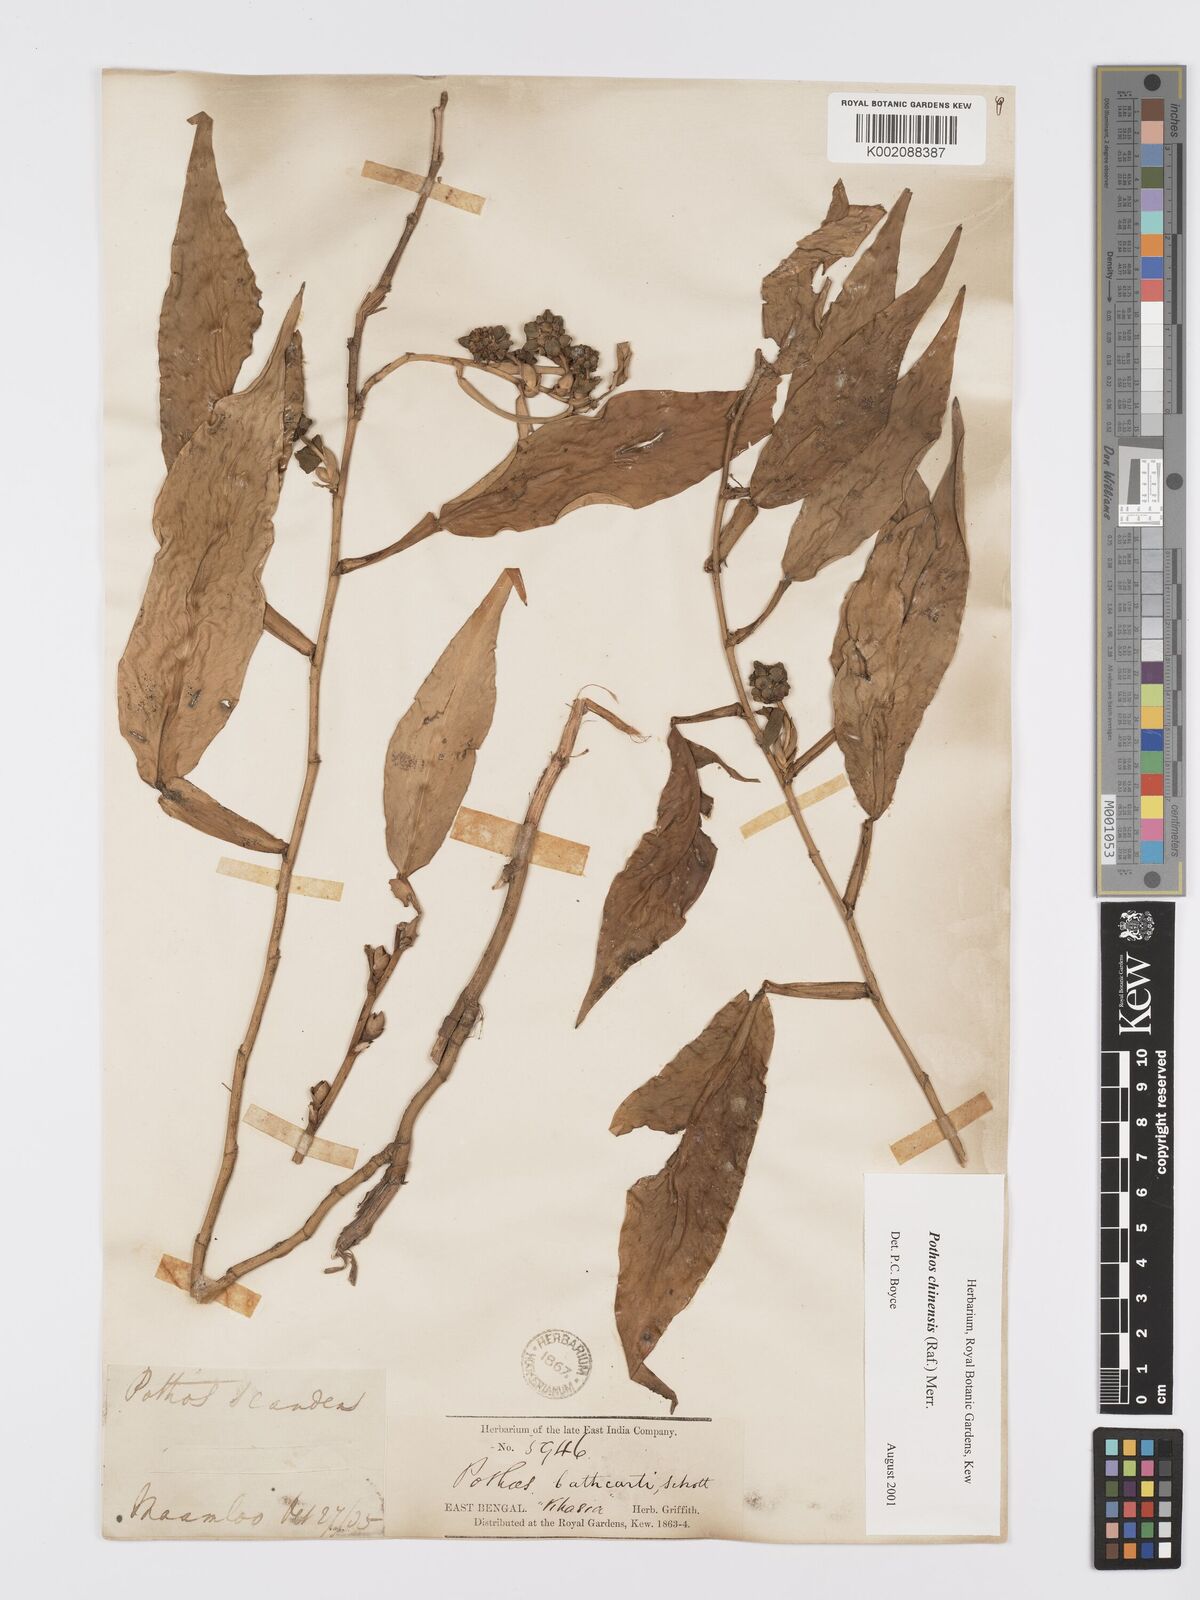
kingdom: Plantae
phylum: Tracheophyta
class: Liliopsida
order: Alismatales
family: Araceae
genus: Pothos
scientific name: Pothos chinensis
